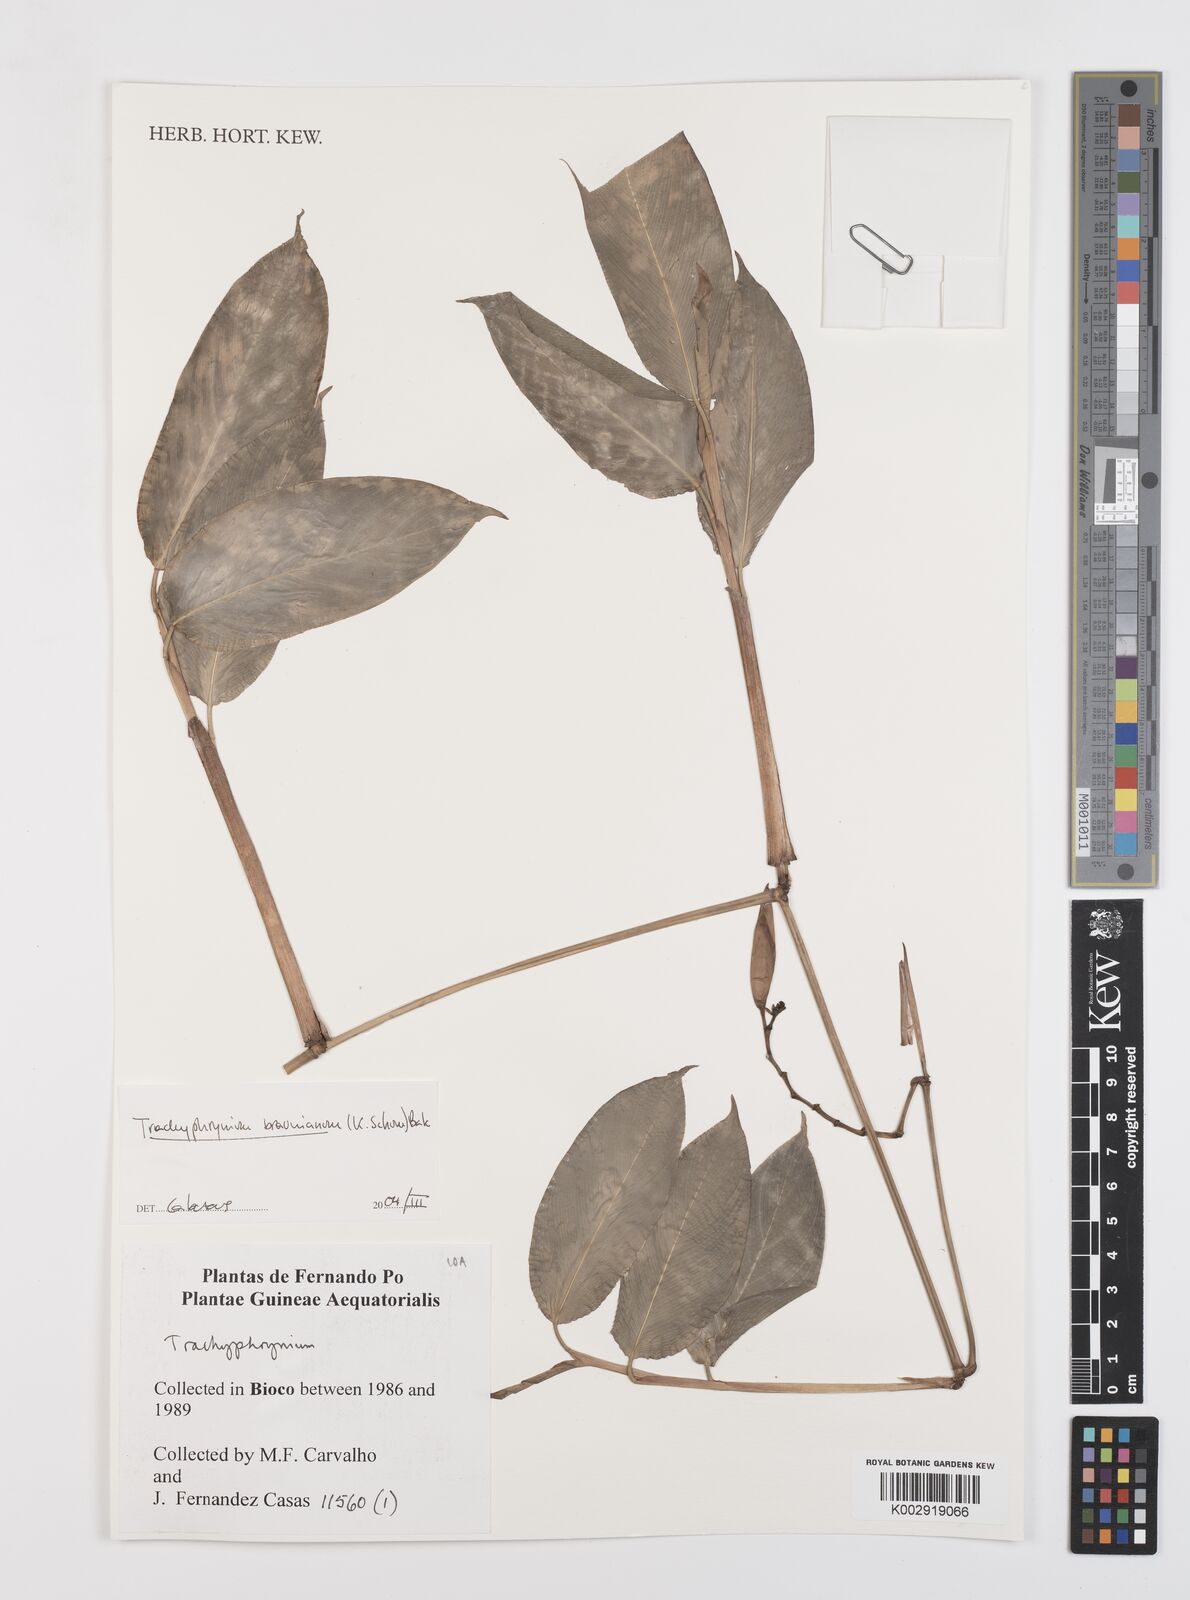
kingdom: Plantae
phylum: Tracheophyta
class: Liliopsida
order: Zingiberales
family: Marantaceae
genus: Trachyphrynium
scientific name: Trachyphrynium braunianum
